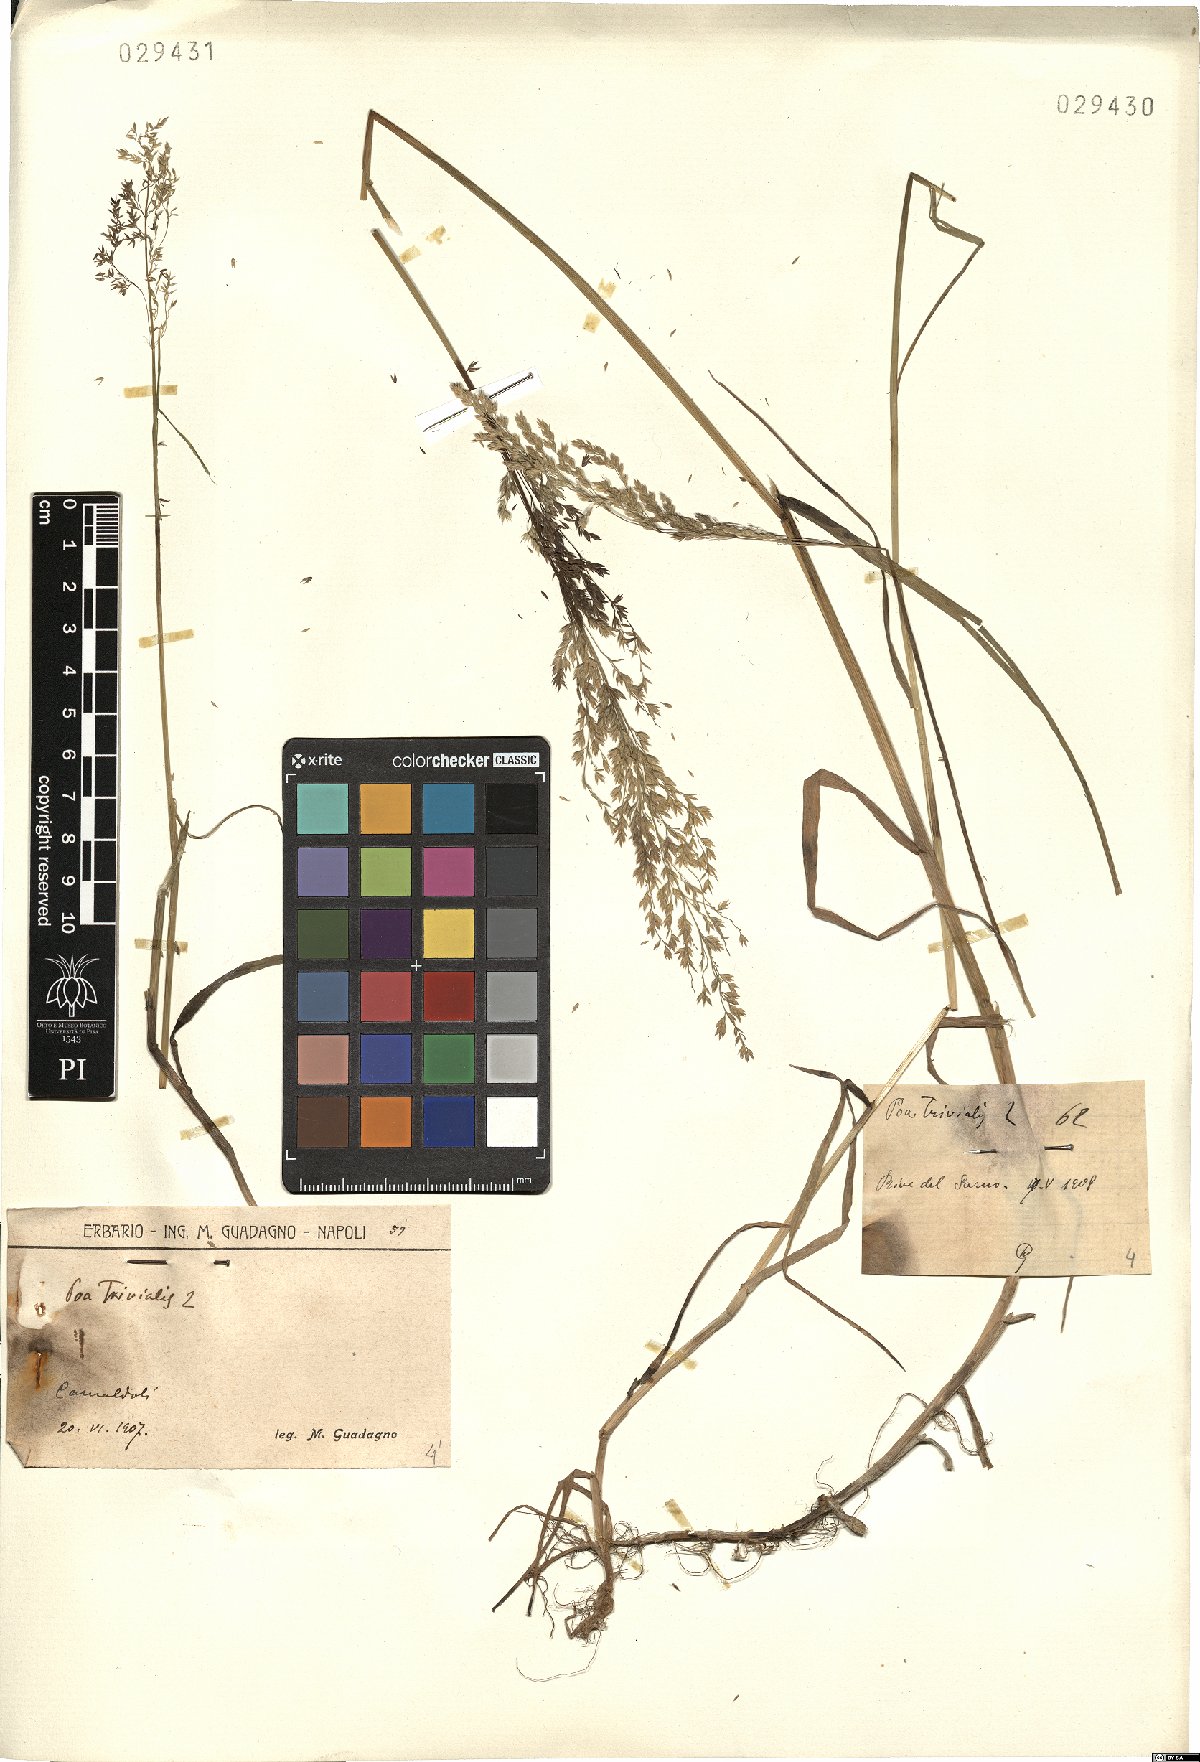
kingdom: Plantae
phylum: Tracheophyta
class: Liliopsida
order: Poales
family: Poaceae
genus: Poa
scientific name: Poa trivialis
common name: Rough bluegrass
